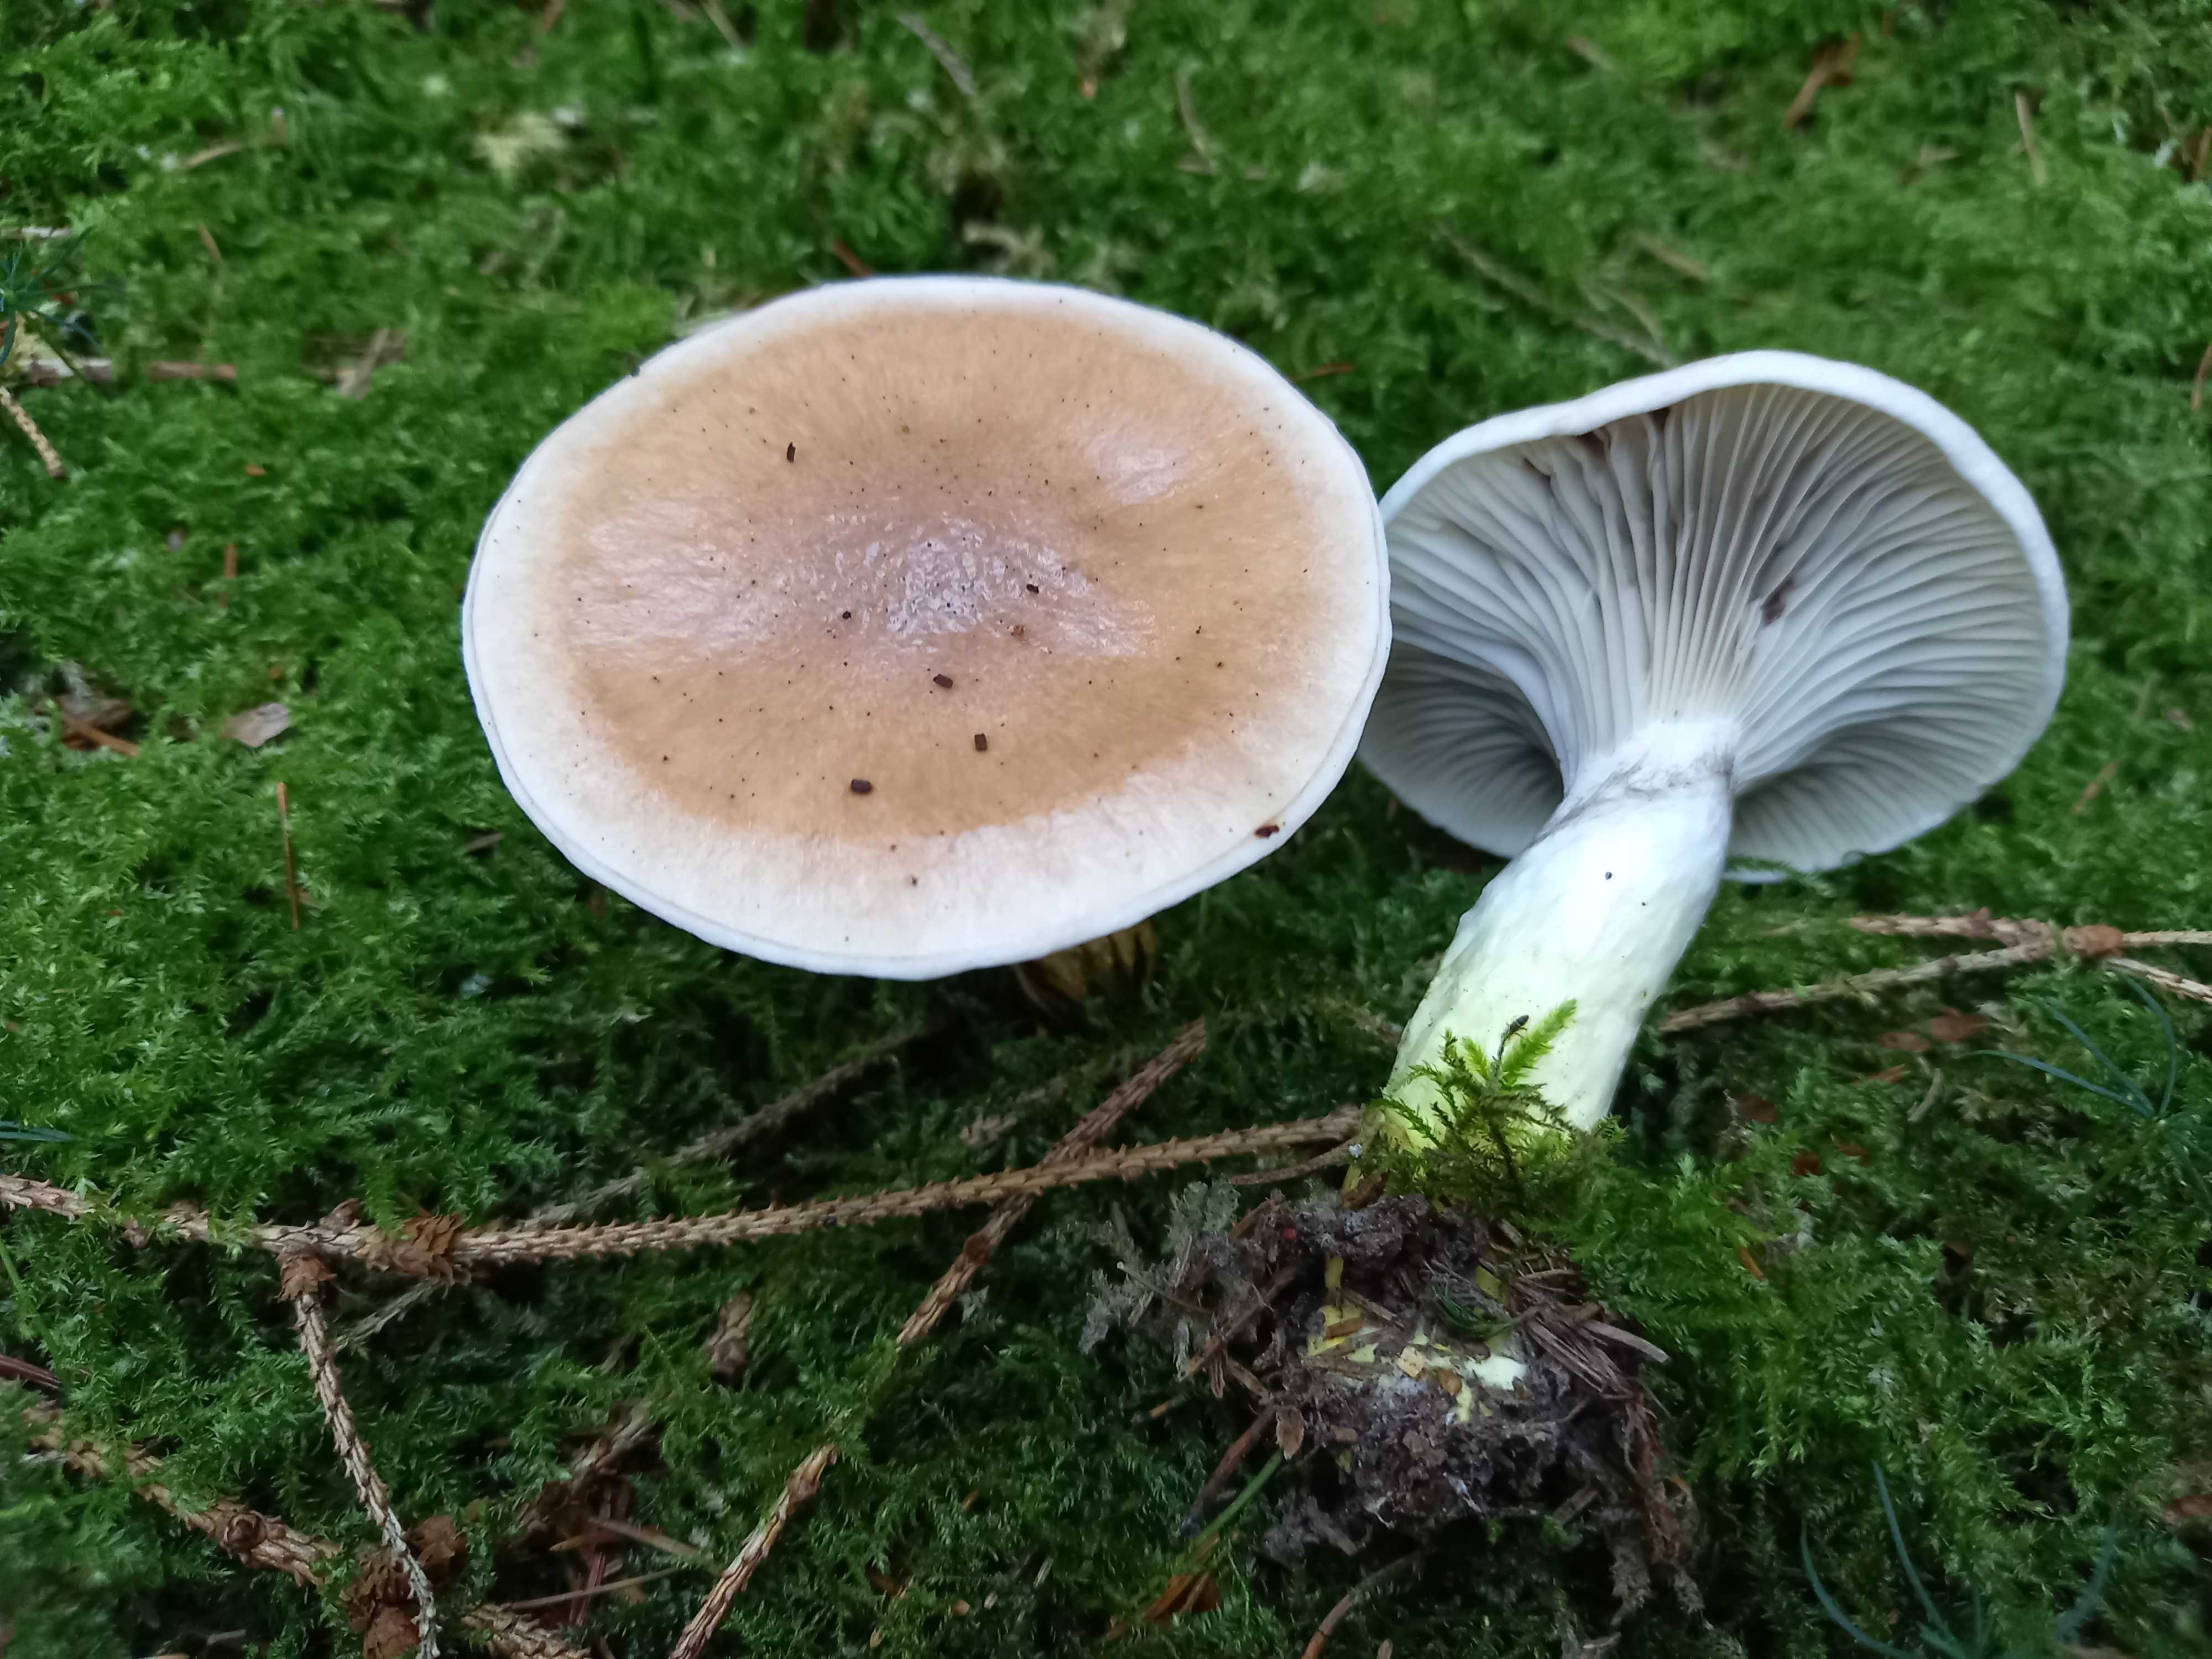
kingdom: Fungi
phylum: Basidiomycota
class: Agaricomycetes
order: Boletales
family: Gomphidiaceae
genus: Gomphidius
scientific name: Gomphidius glutinosus
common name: grå slimslør
